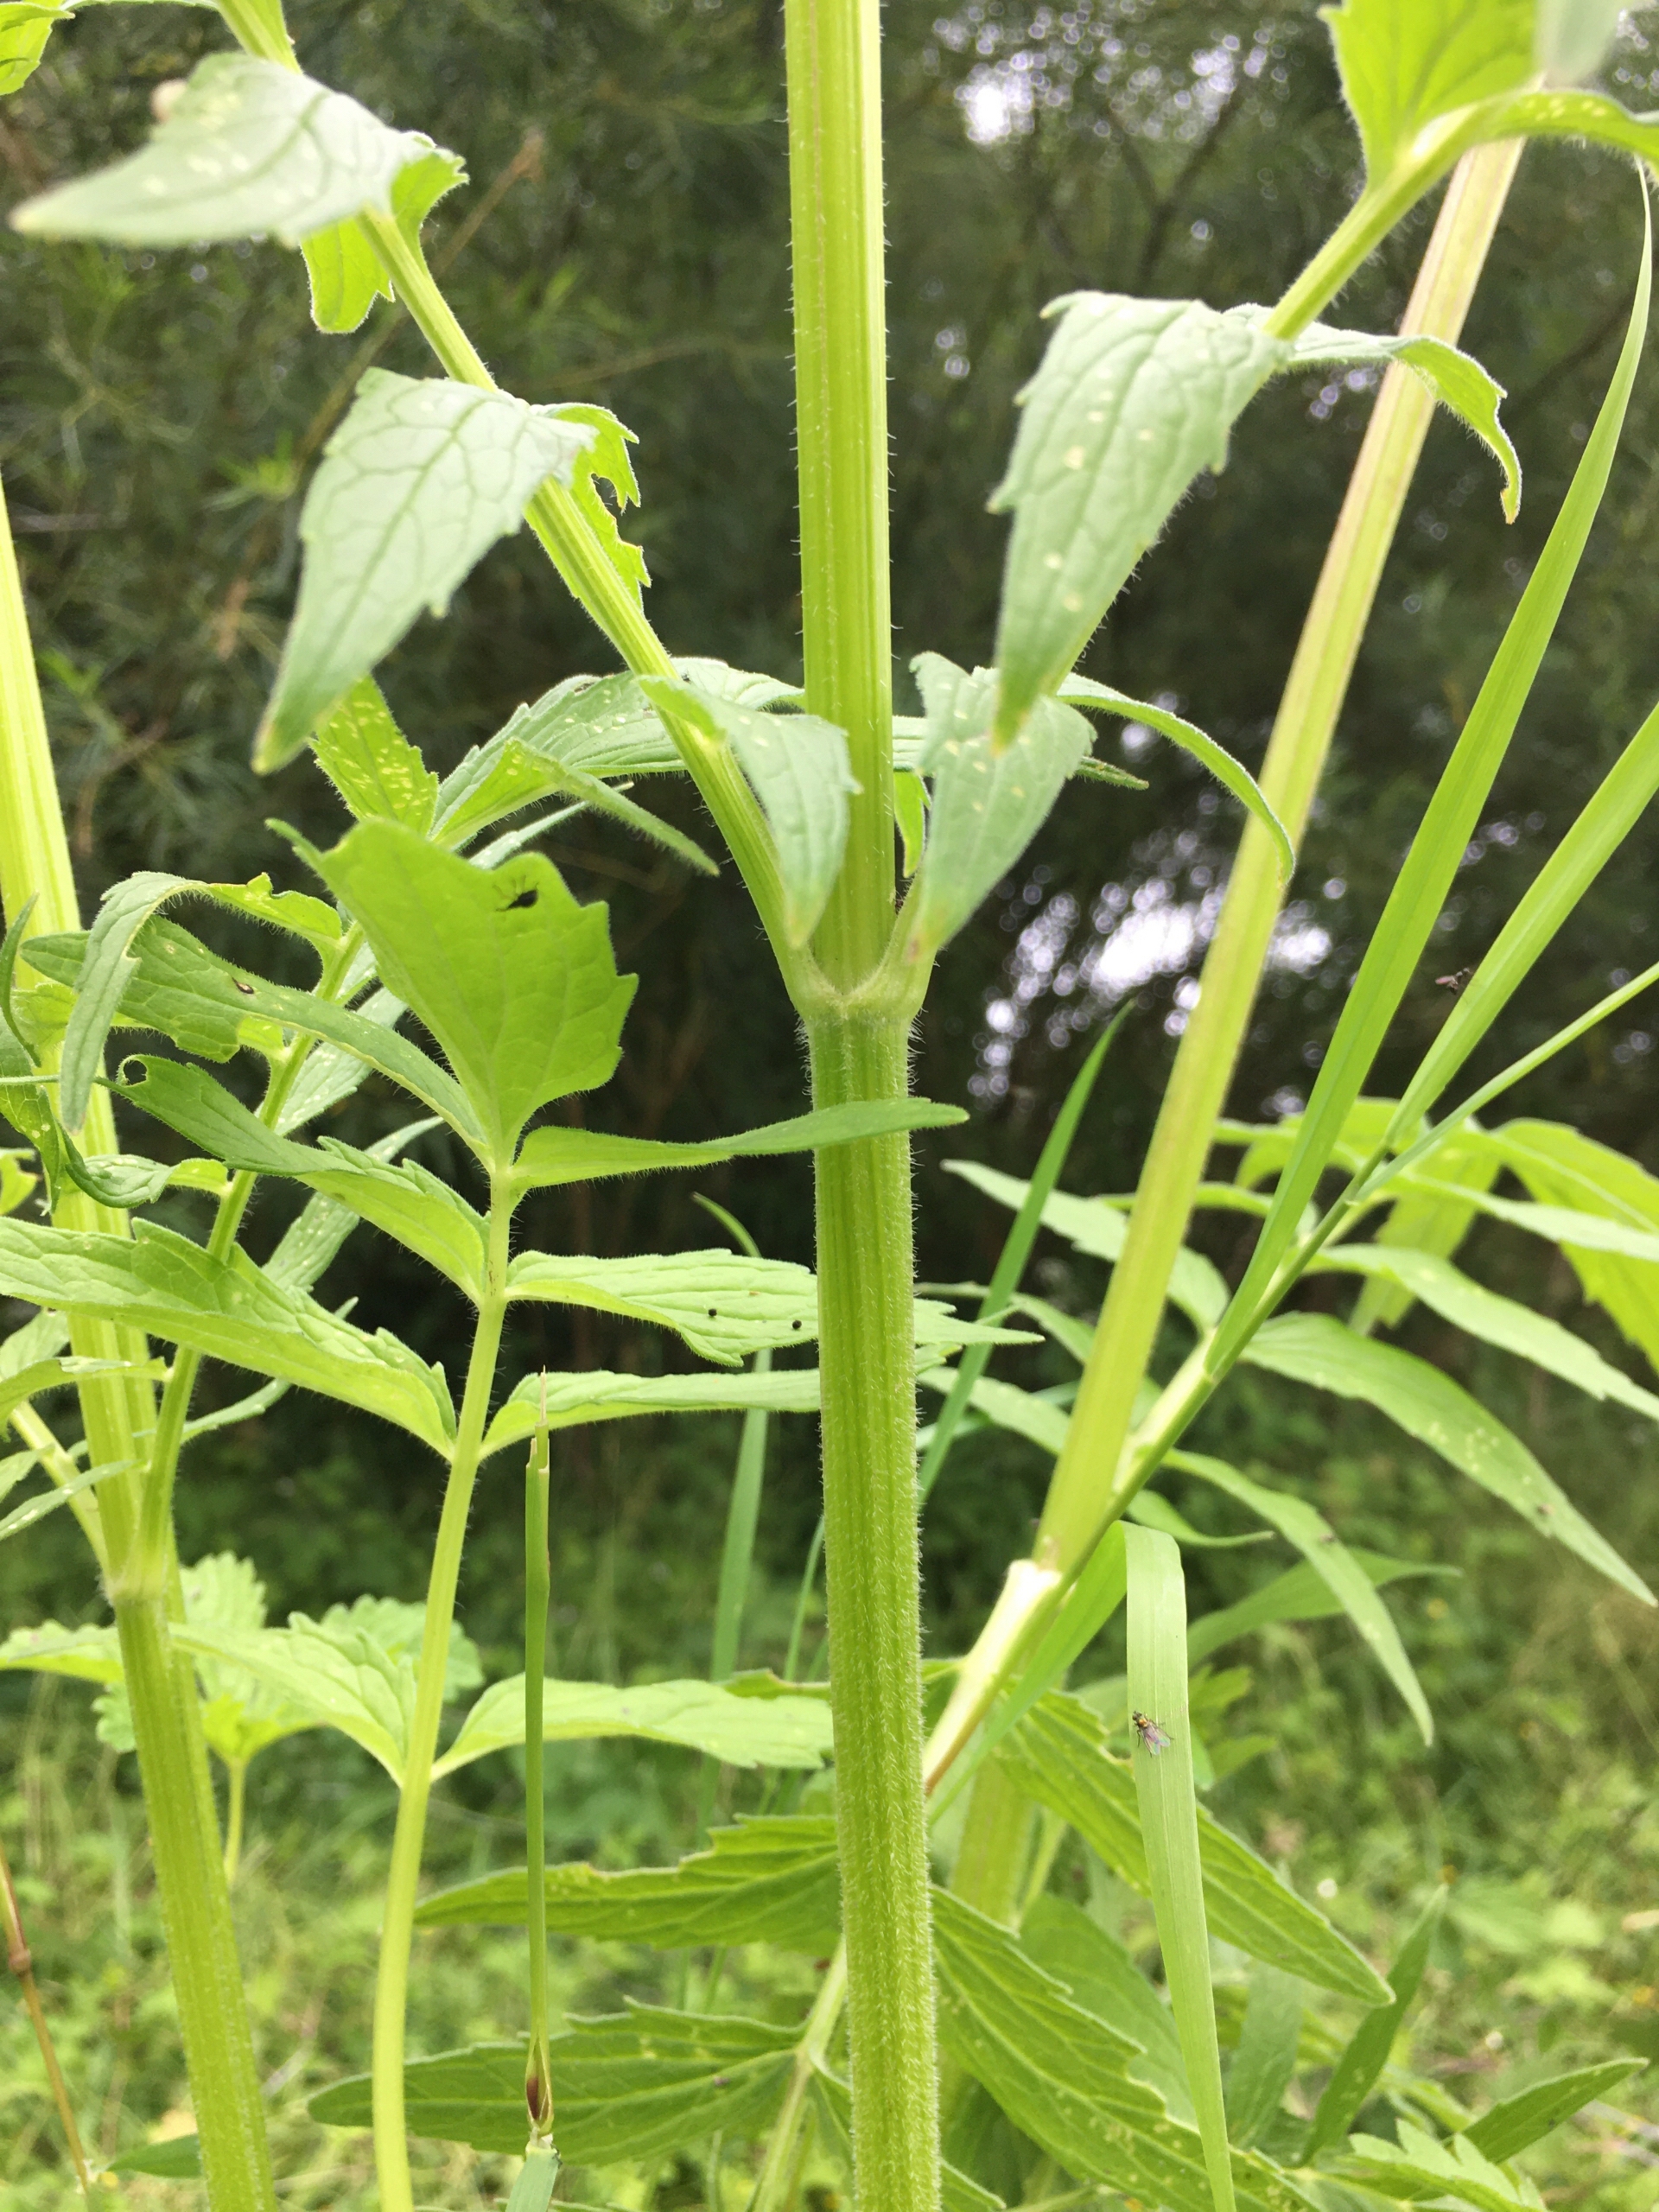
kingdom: Plantae
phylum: Tracheophyta
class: Magnoliopsida
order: Dipsacales
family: Caprifoliaceae
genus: Valeriana
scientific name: Valeriana excelsa
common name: Krybende baldrian
